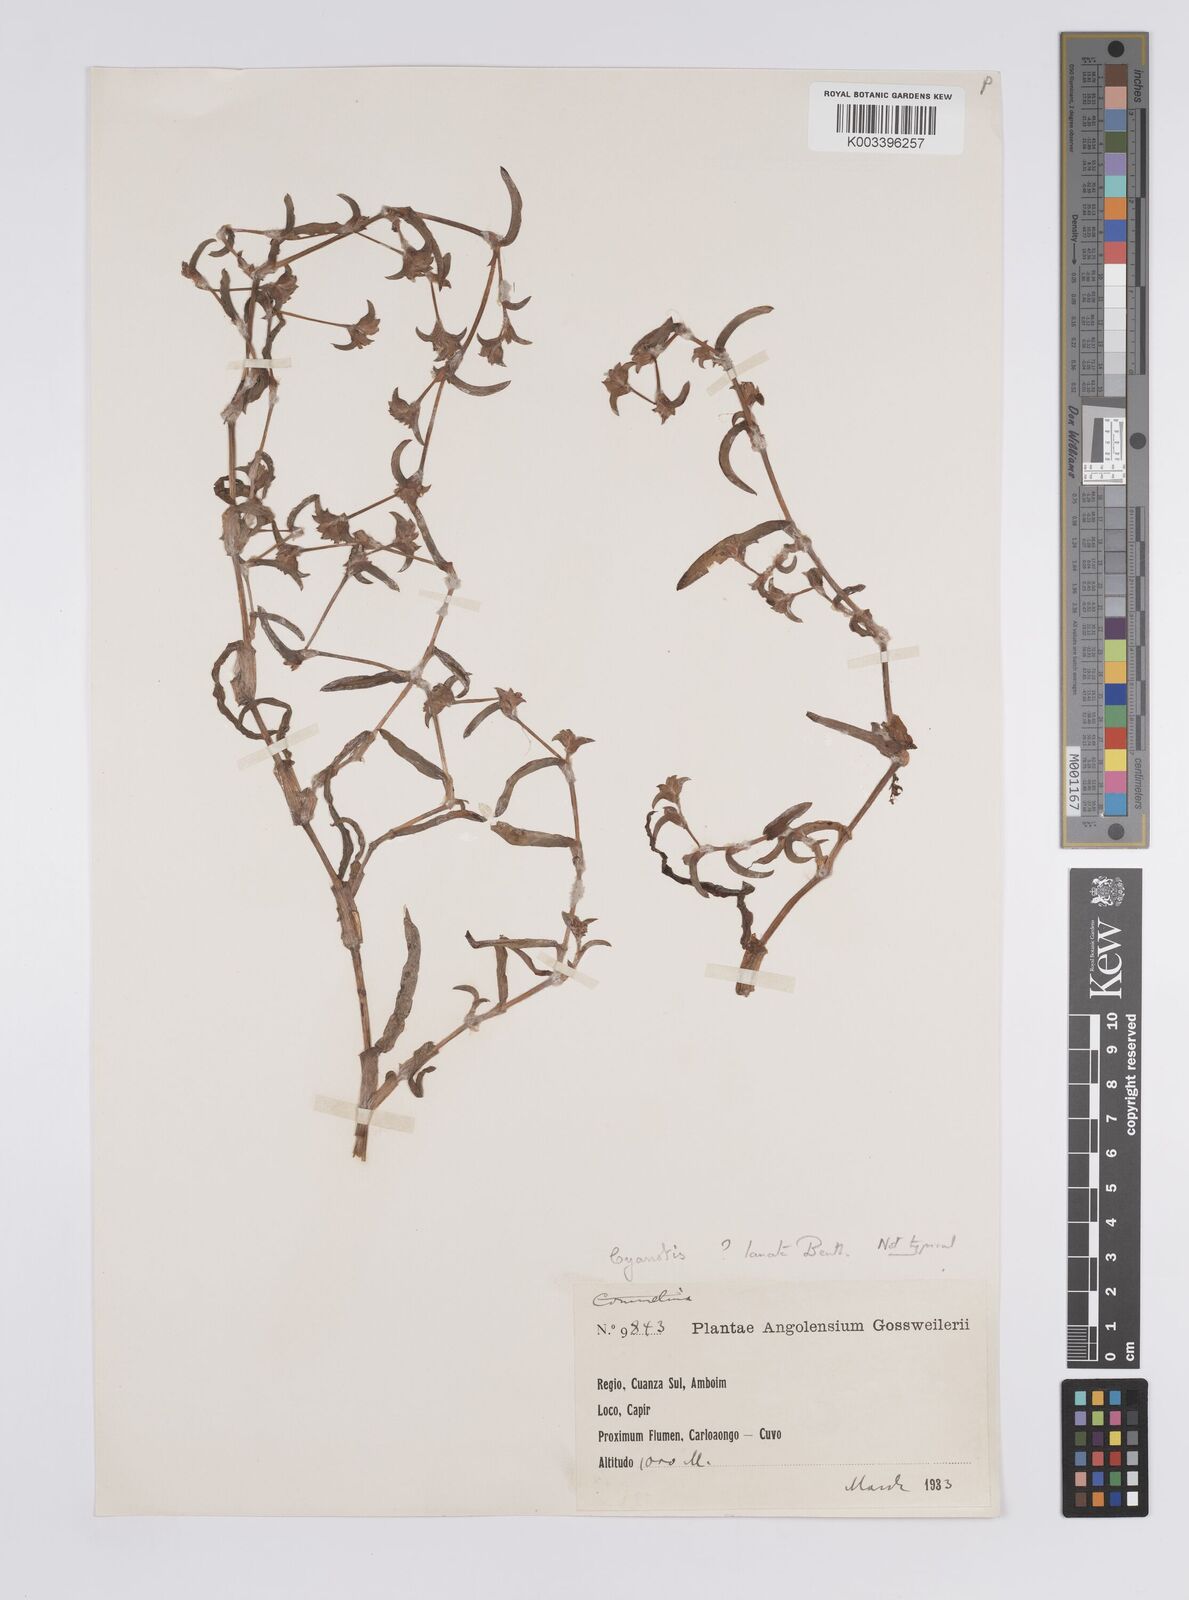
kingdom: Plantae
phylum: Tracheophyta
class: Liliopsida
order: Commelinales
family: Commelinaceae
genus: Cyanotis
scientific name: Cyanotis lanata
